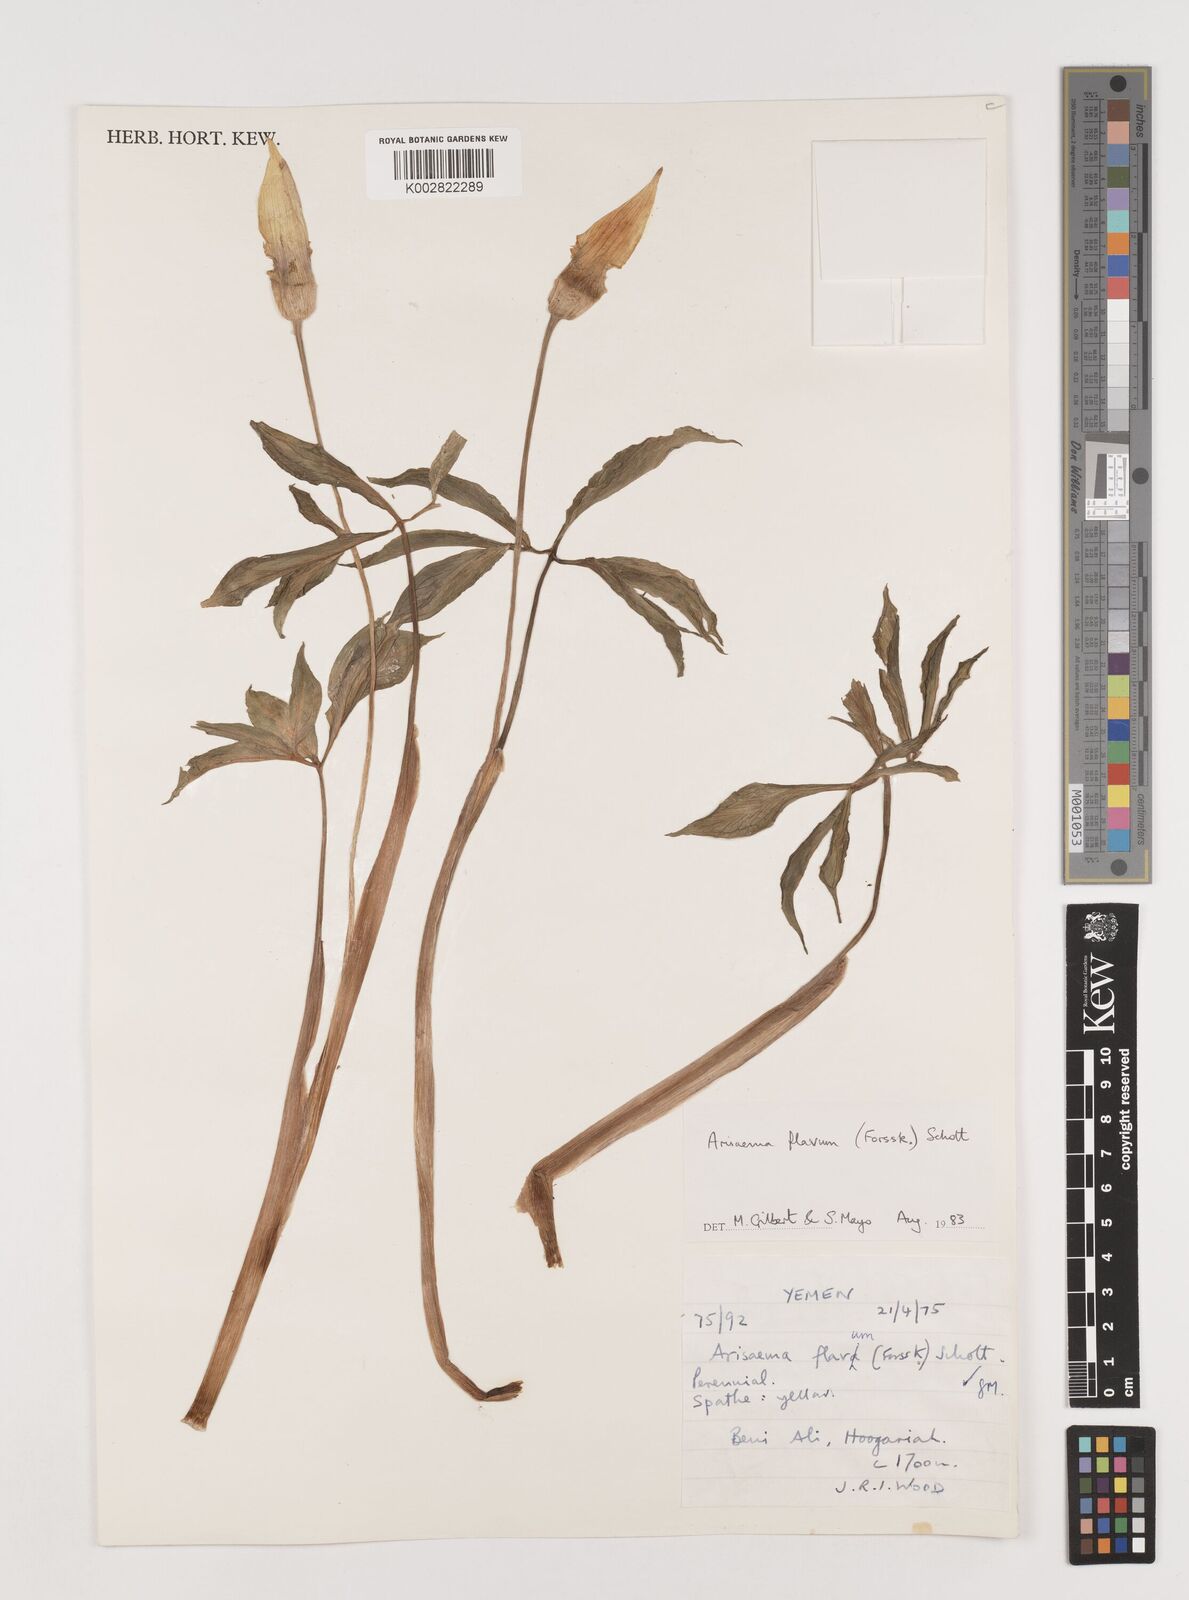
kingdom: Plantae
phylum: Tracheophyta
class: Liliopsida
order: Alismatales
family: Araceae
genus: Arisaema
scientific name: Arisaema flavum
